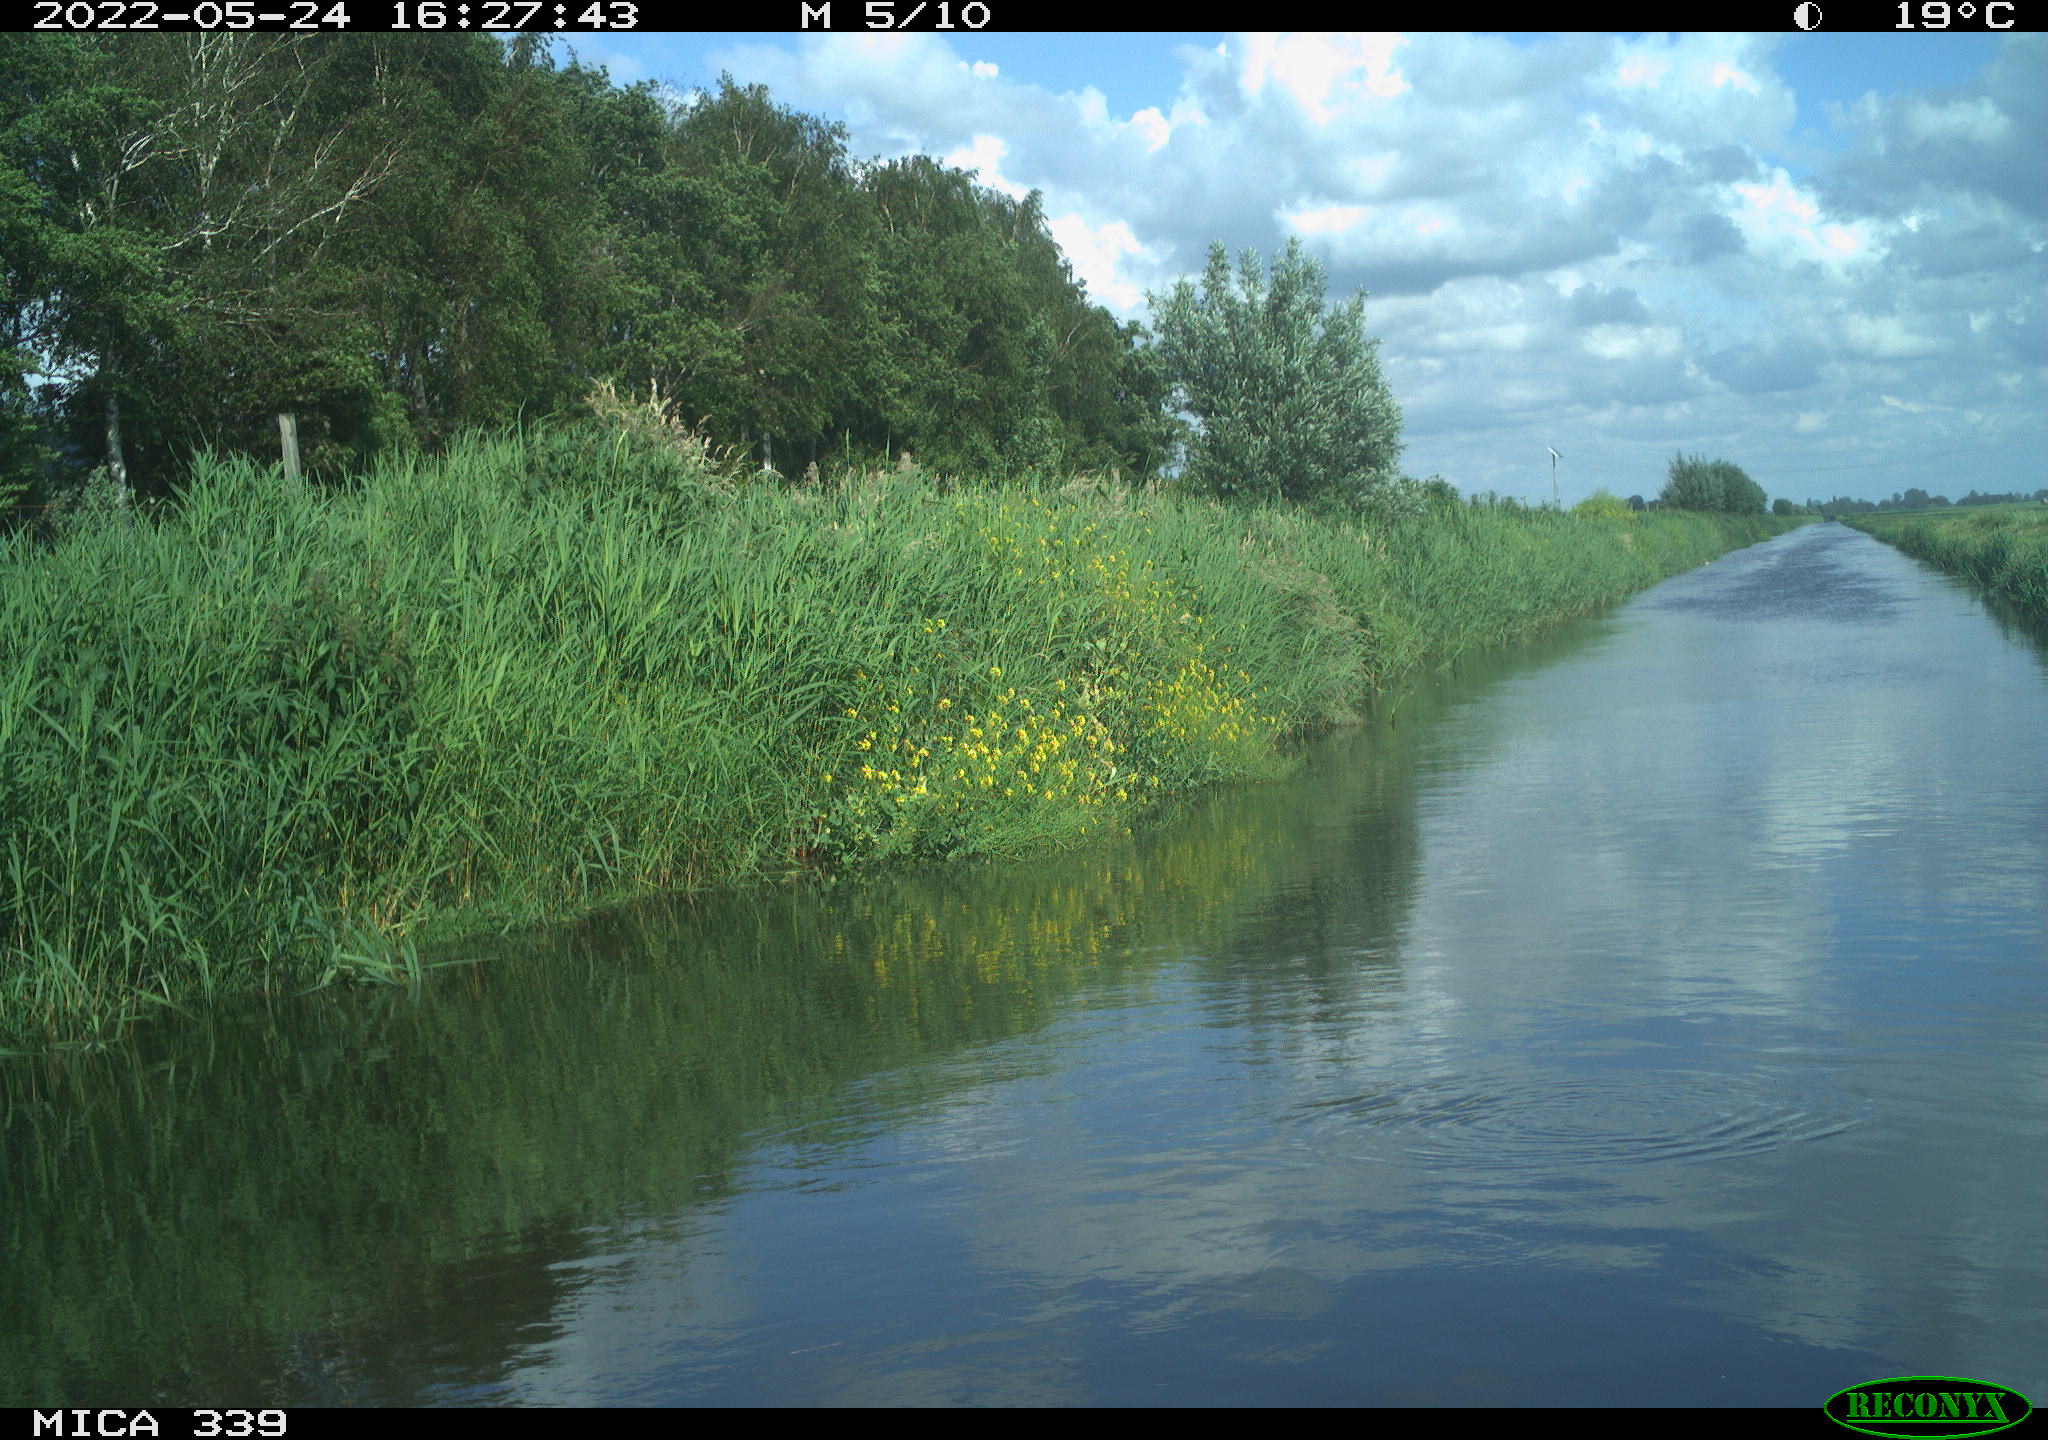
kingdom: Animalia
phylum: Chordata
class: Aves
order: Pelecaniformes
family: Ardeidae
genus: Ardea
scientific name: Ardea cinerea
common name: Grey heron
